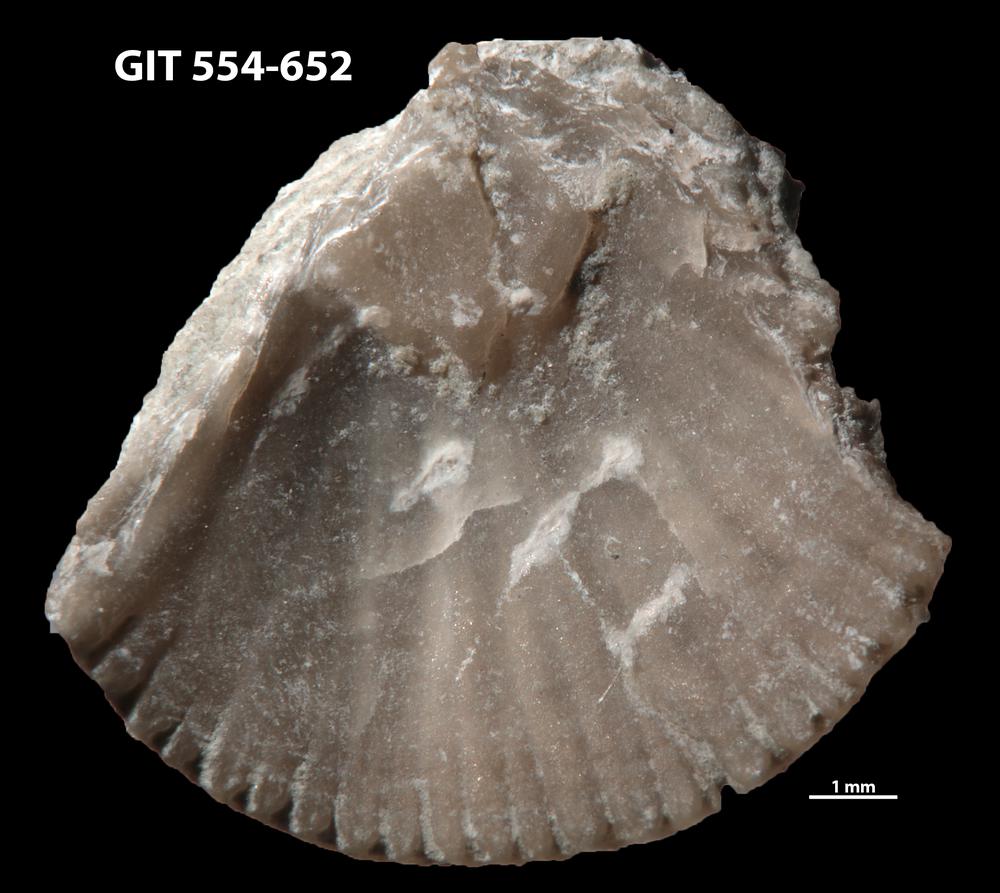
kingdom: Animalia
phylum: Brachiopoda
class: Rhynchonellata
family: Dolerorthidae
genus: Glyptorthis
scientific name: Glyptorthis irrupta
